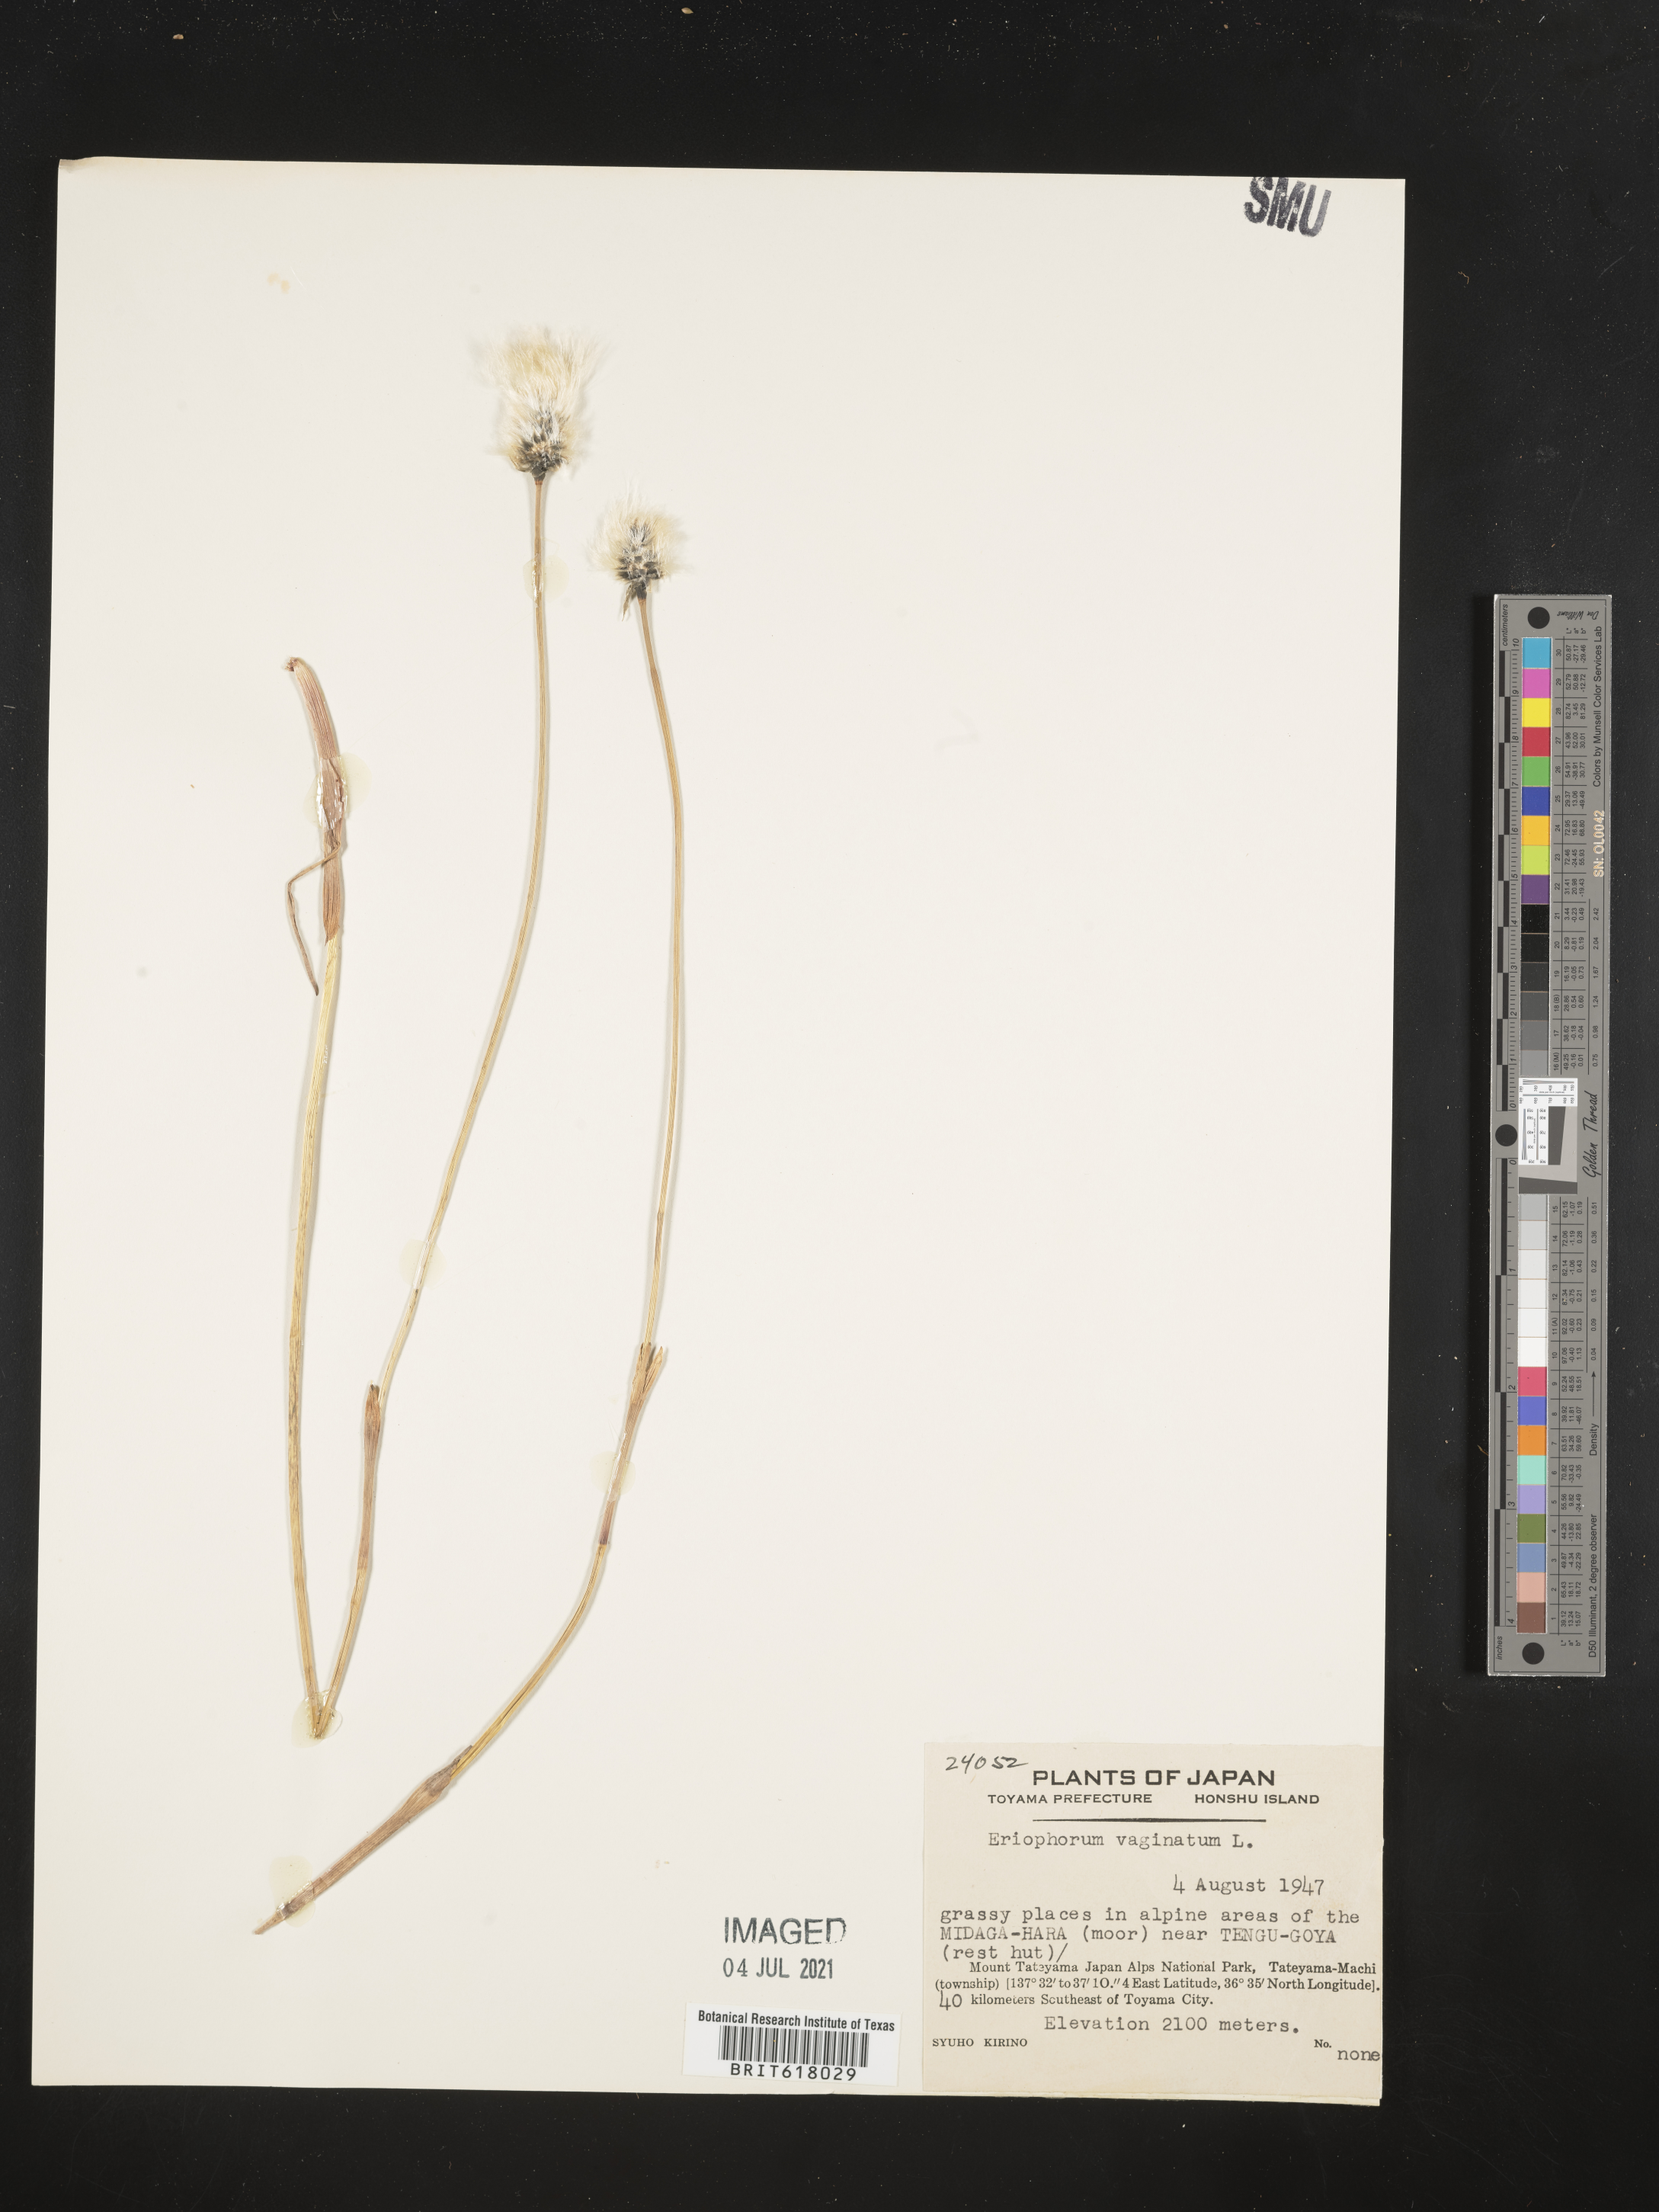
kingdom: Plantae
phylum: Tracheophyta
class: Liliopsida
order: Poales
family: Cyperaceae
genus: Eriophorum
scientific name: Eriophorum vaginatum
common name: Hare's-tail cottongrass
